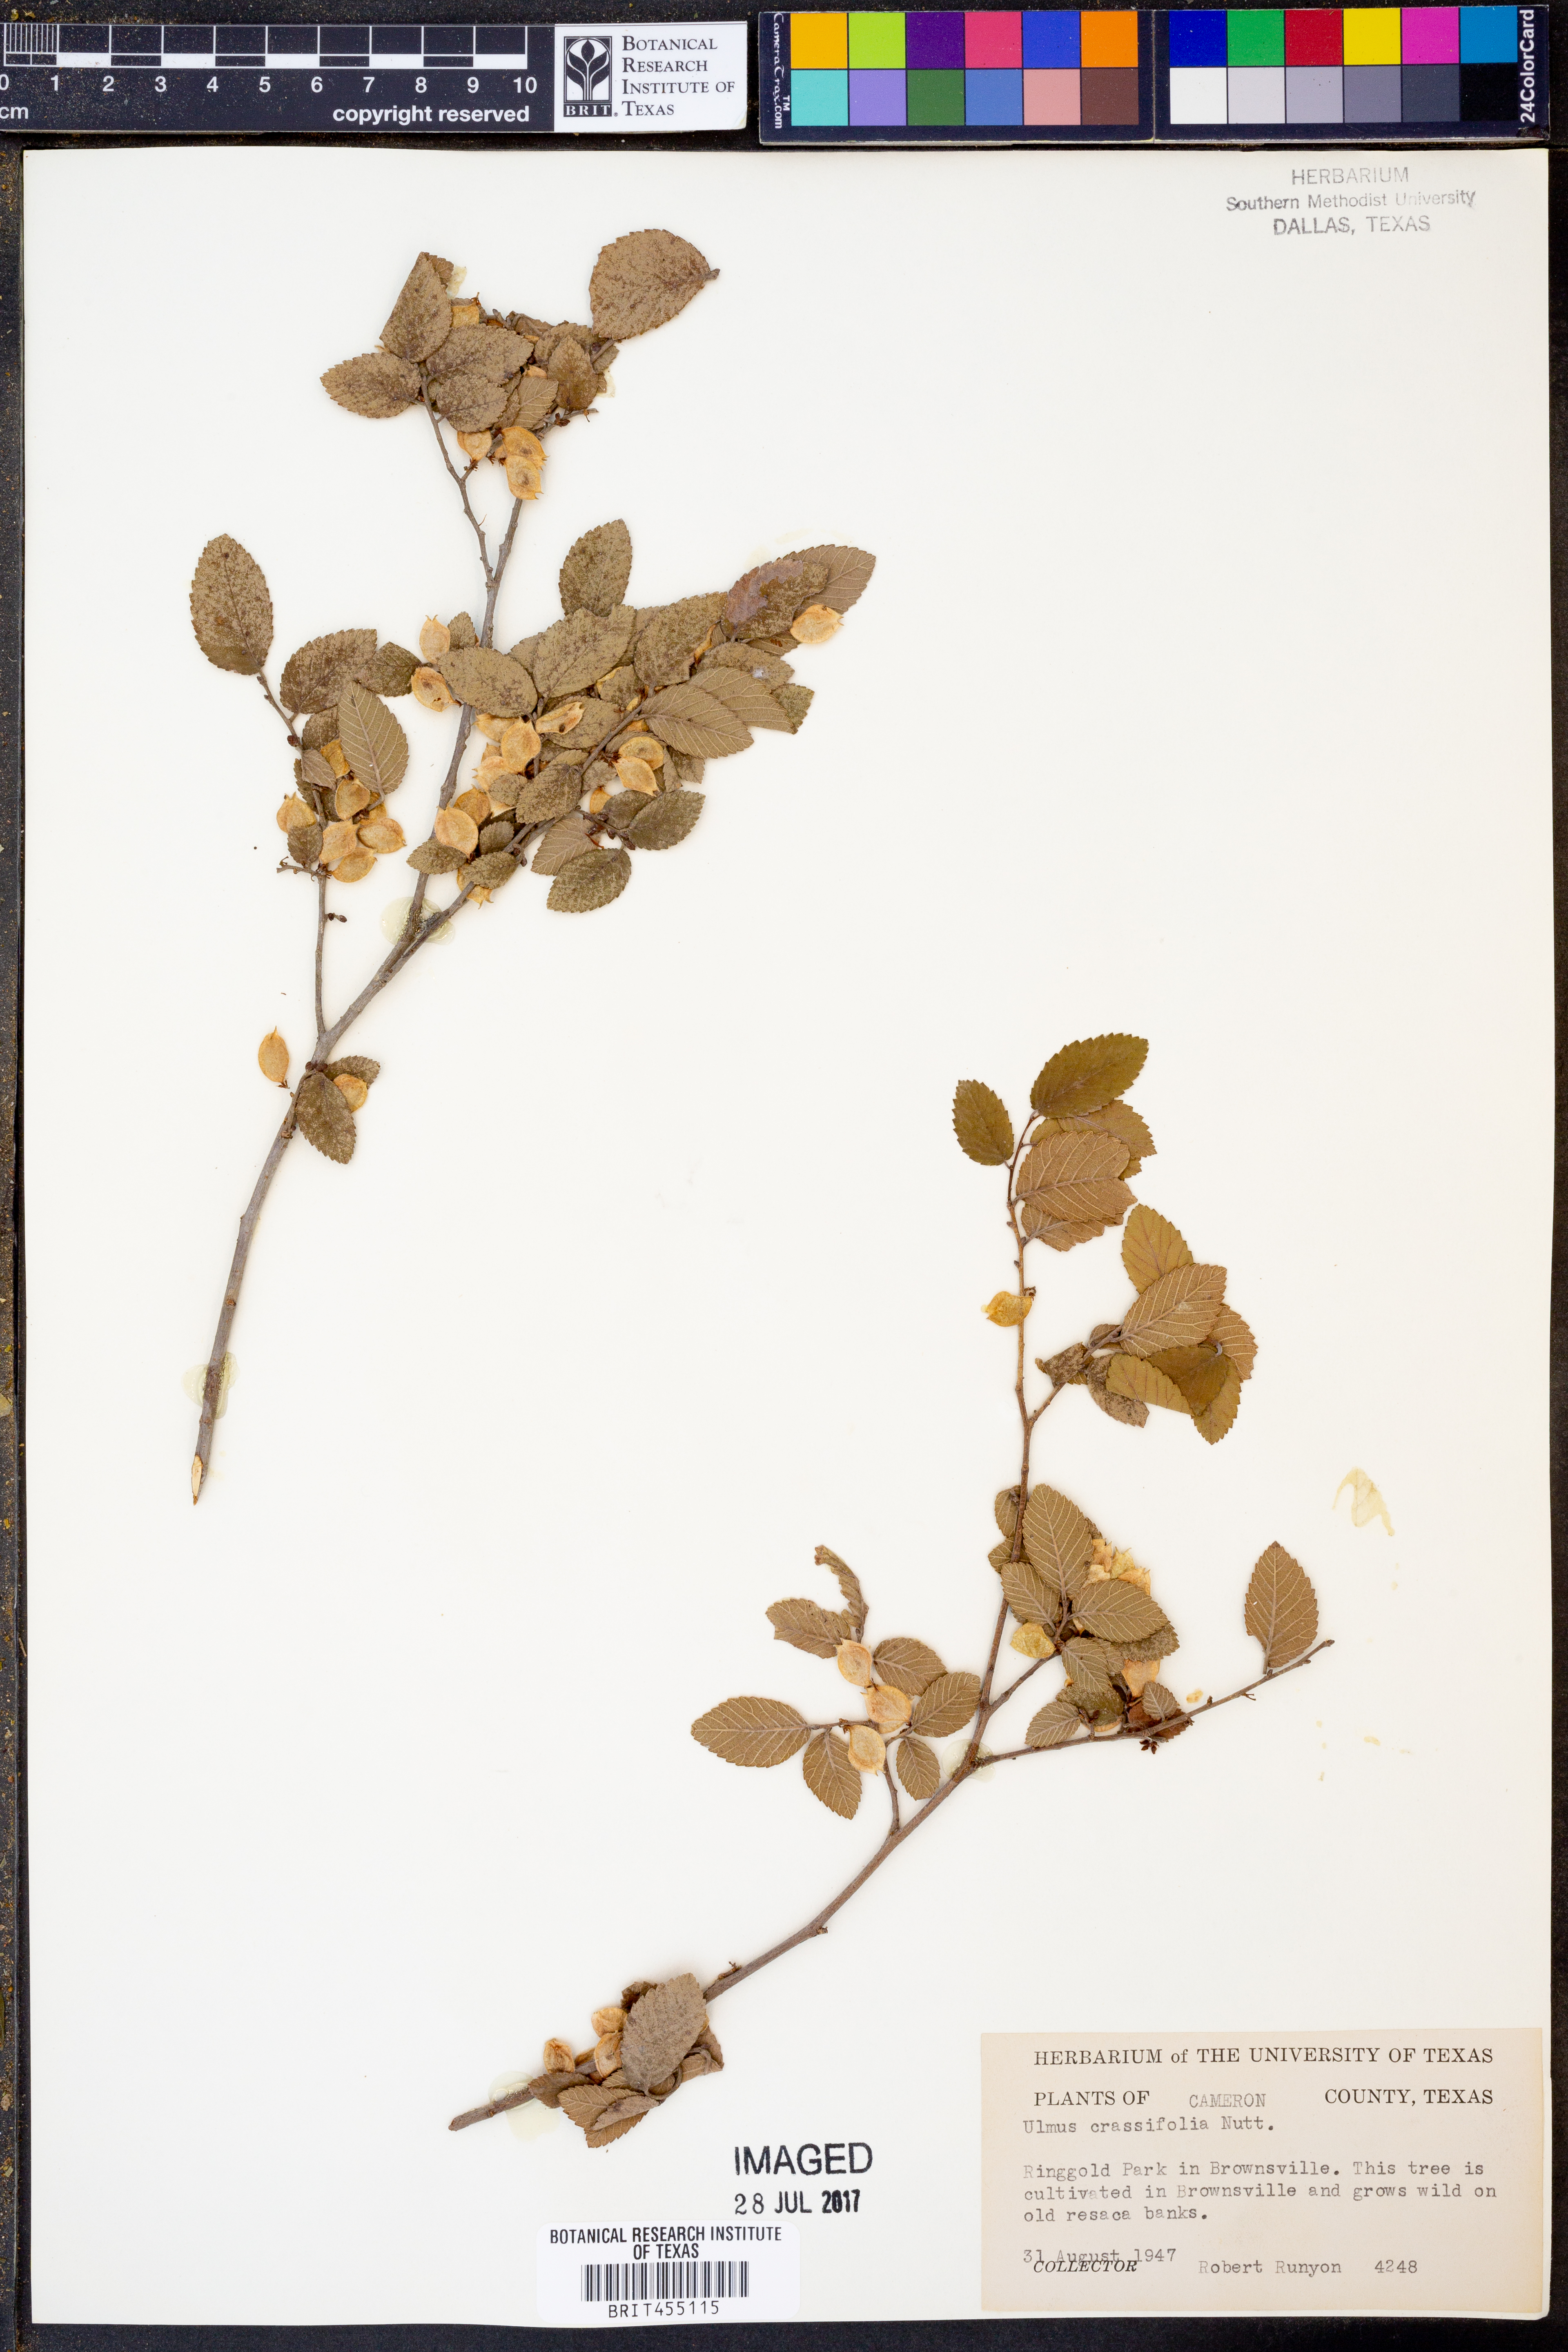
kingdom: Plantae
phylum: Tracheophyta
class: Magnoliopsida
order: Rosales
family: Ulmaceae
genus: Ulmus
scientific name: Ulmus crassifolia
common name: Basket elm
